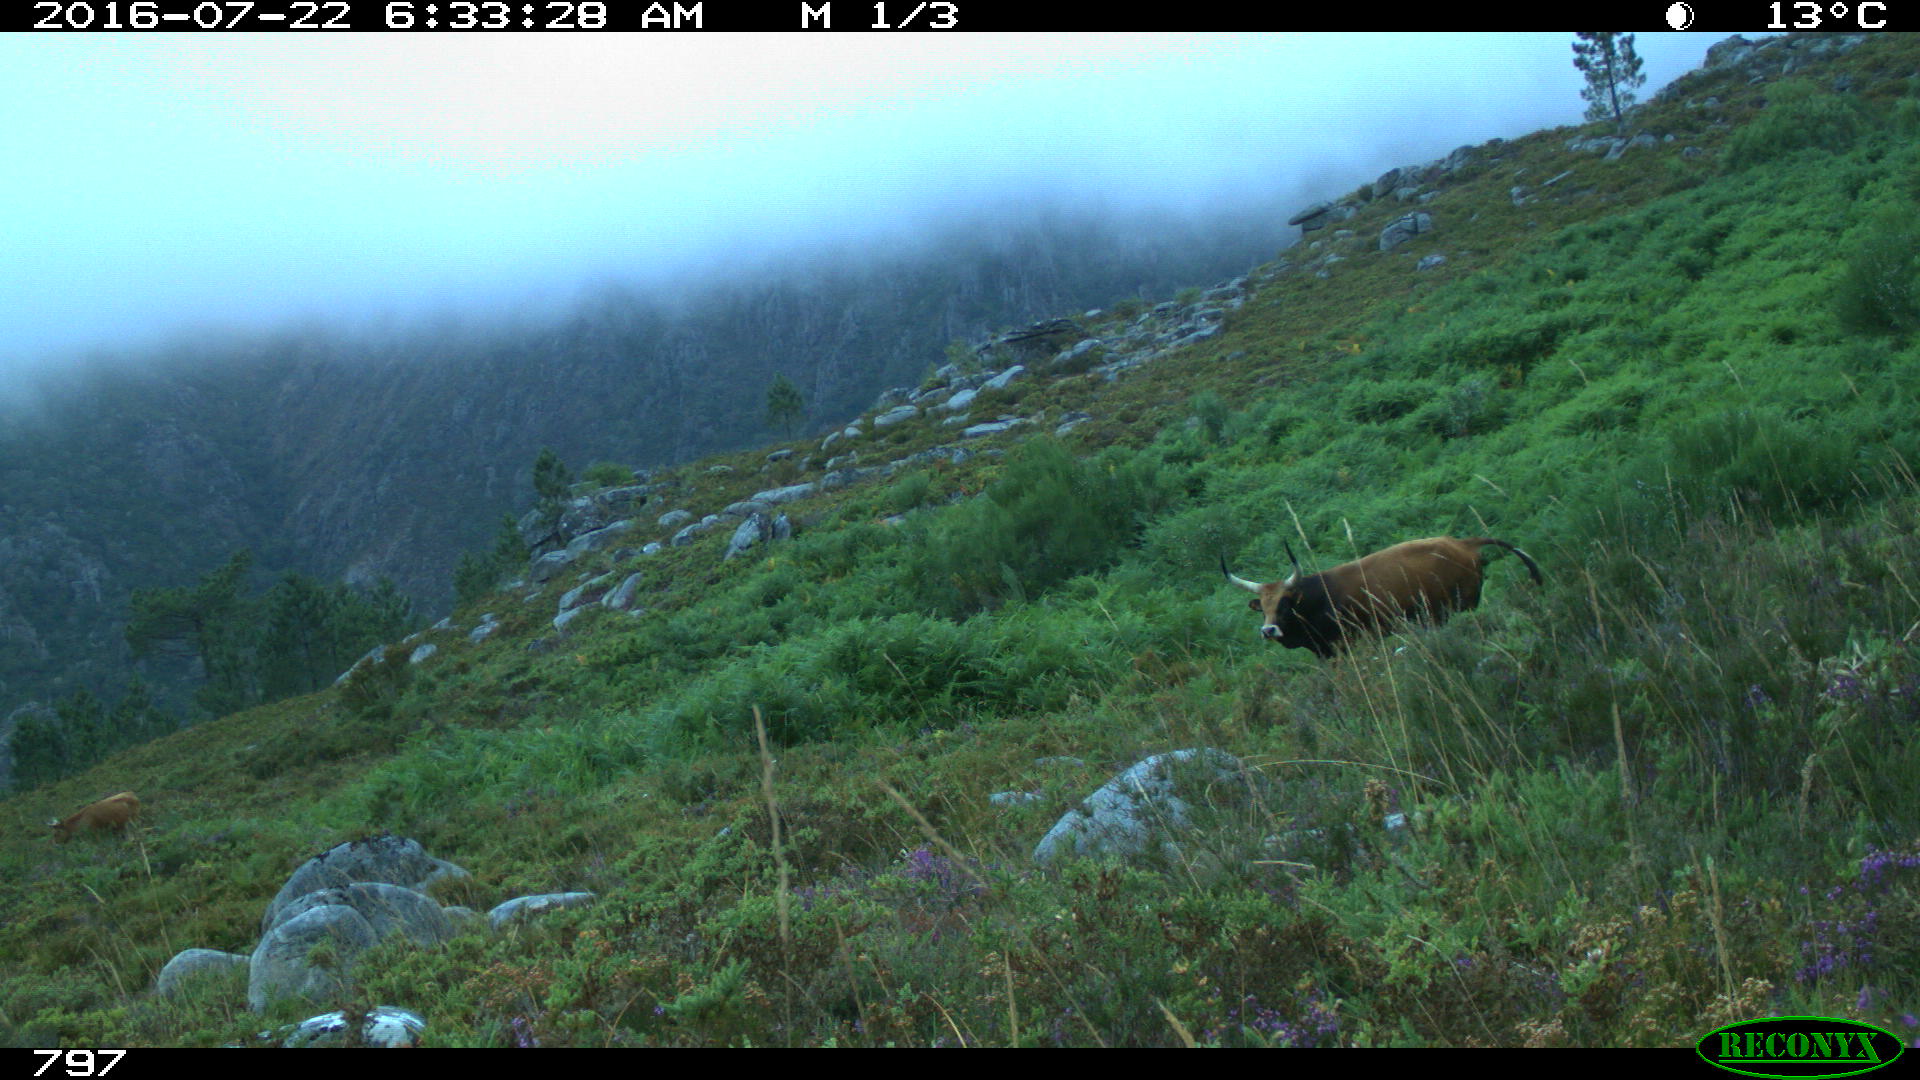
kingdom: Animalia
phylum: Chordata
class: Mammalia
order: Artiodactyla
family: Bovidae
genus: Bos
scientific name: Bos taurus
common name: Domesticated cattle
